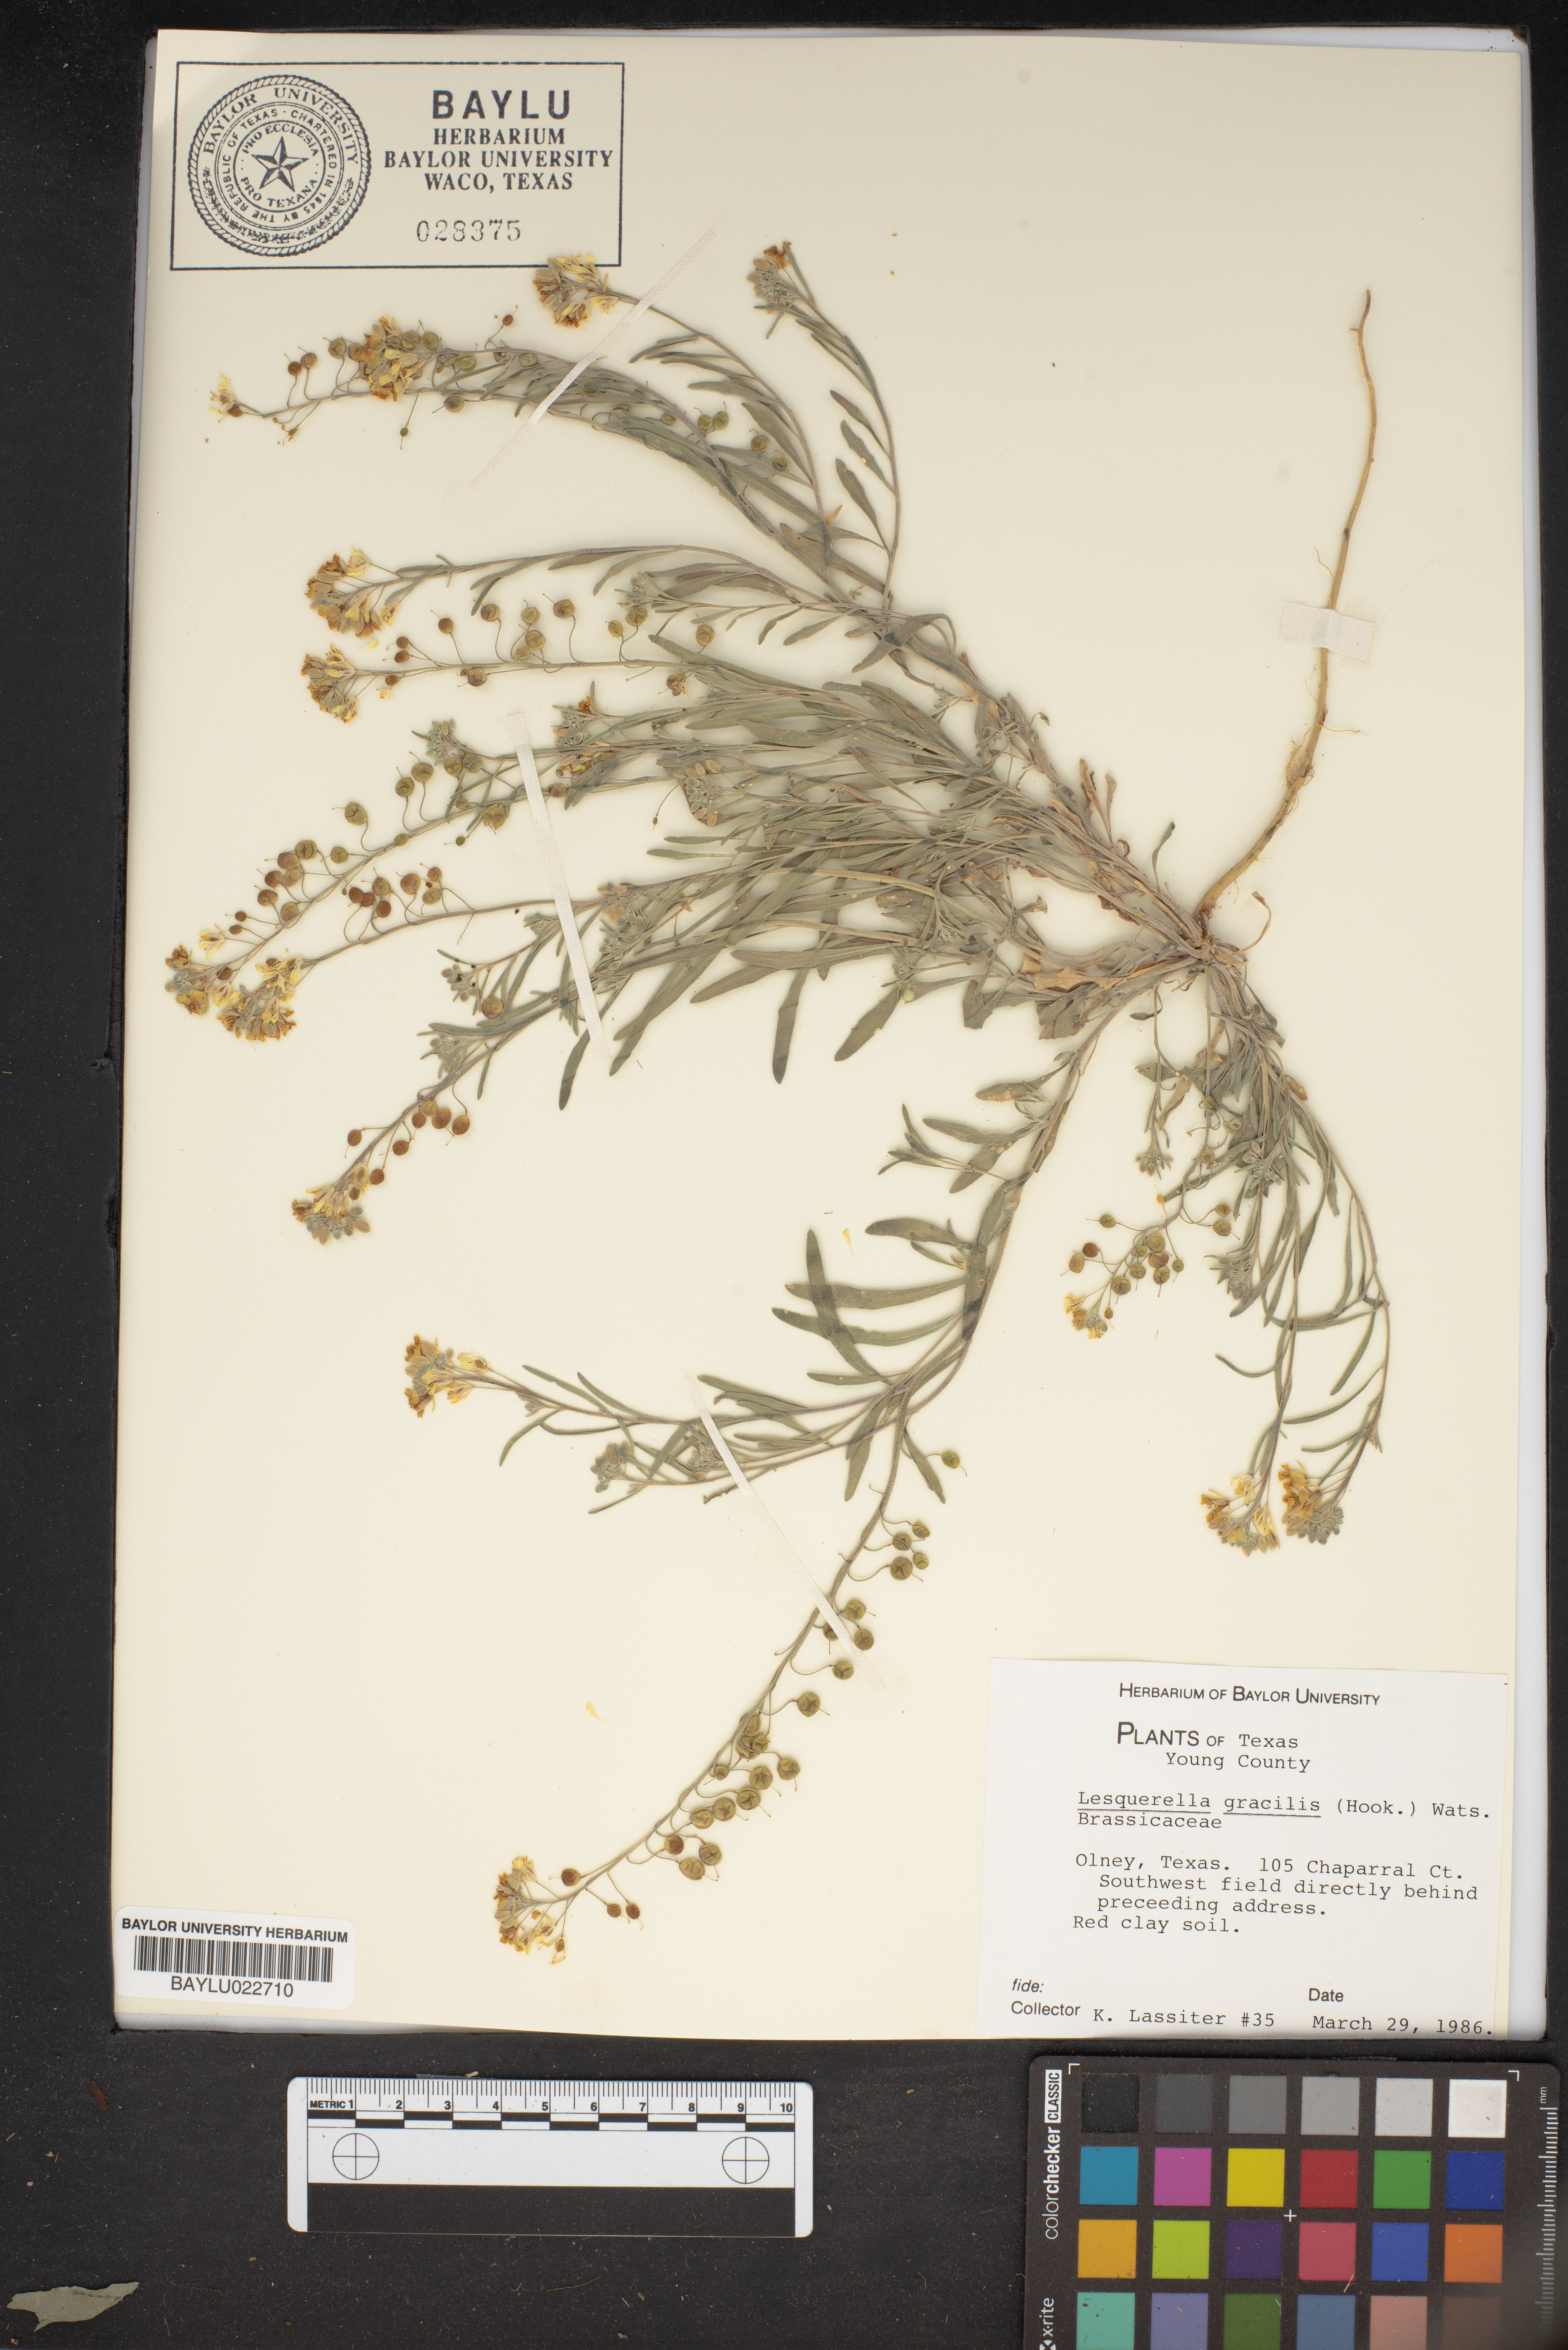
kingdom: Plantae
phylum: Tracheophyta
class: Magnoliopsida
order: Brassicales
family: Brassicaceae
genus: Physaria
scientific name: Physaria gracilis
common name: Spreading bladderpod
